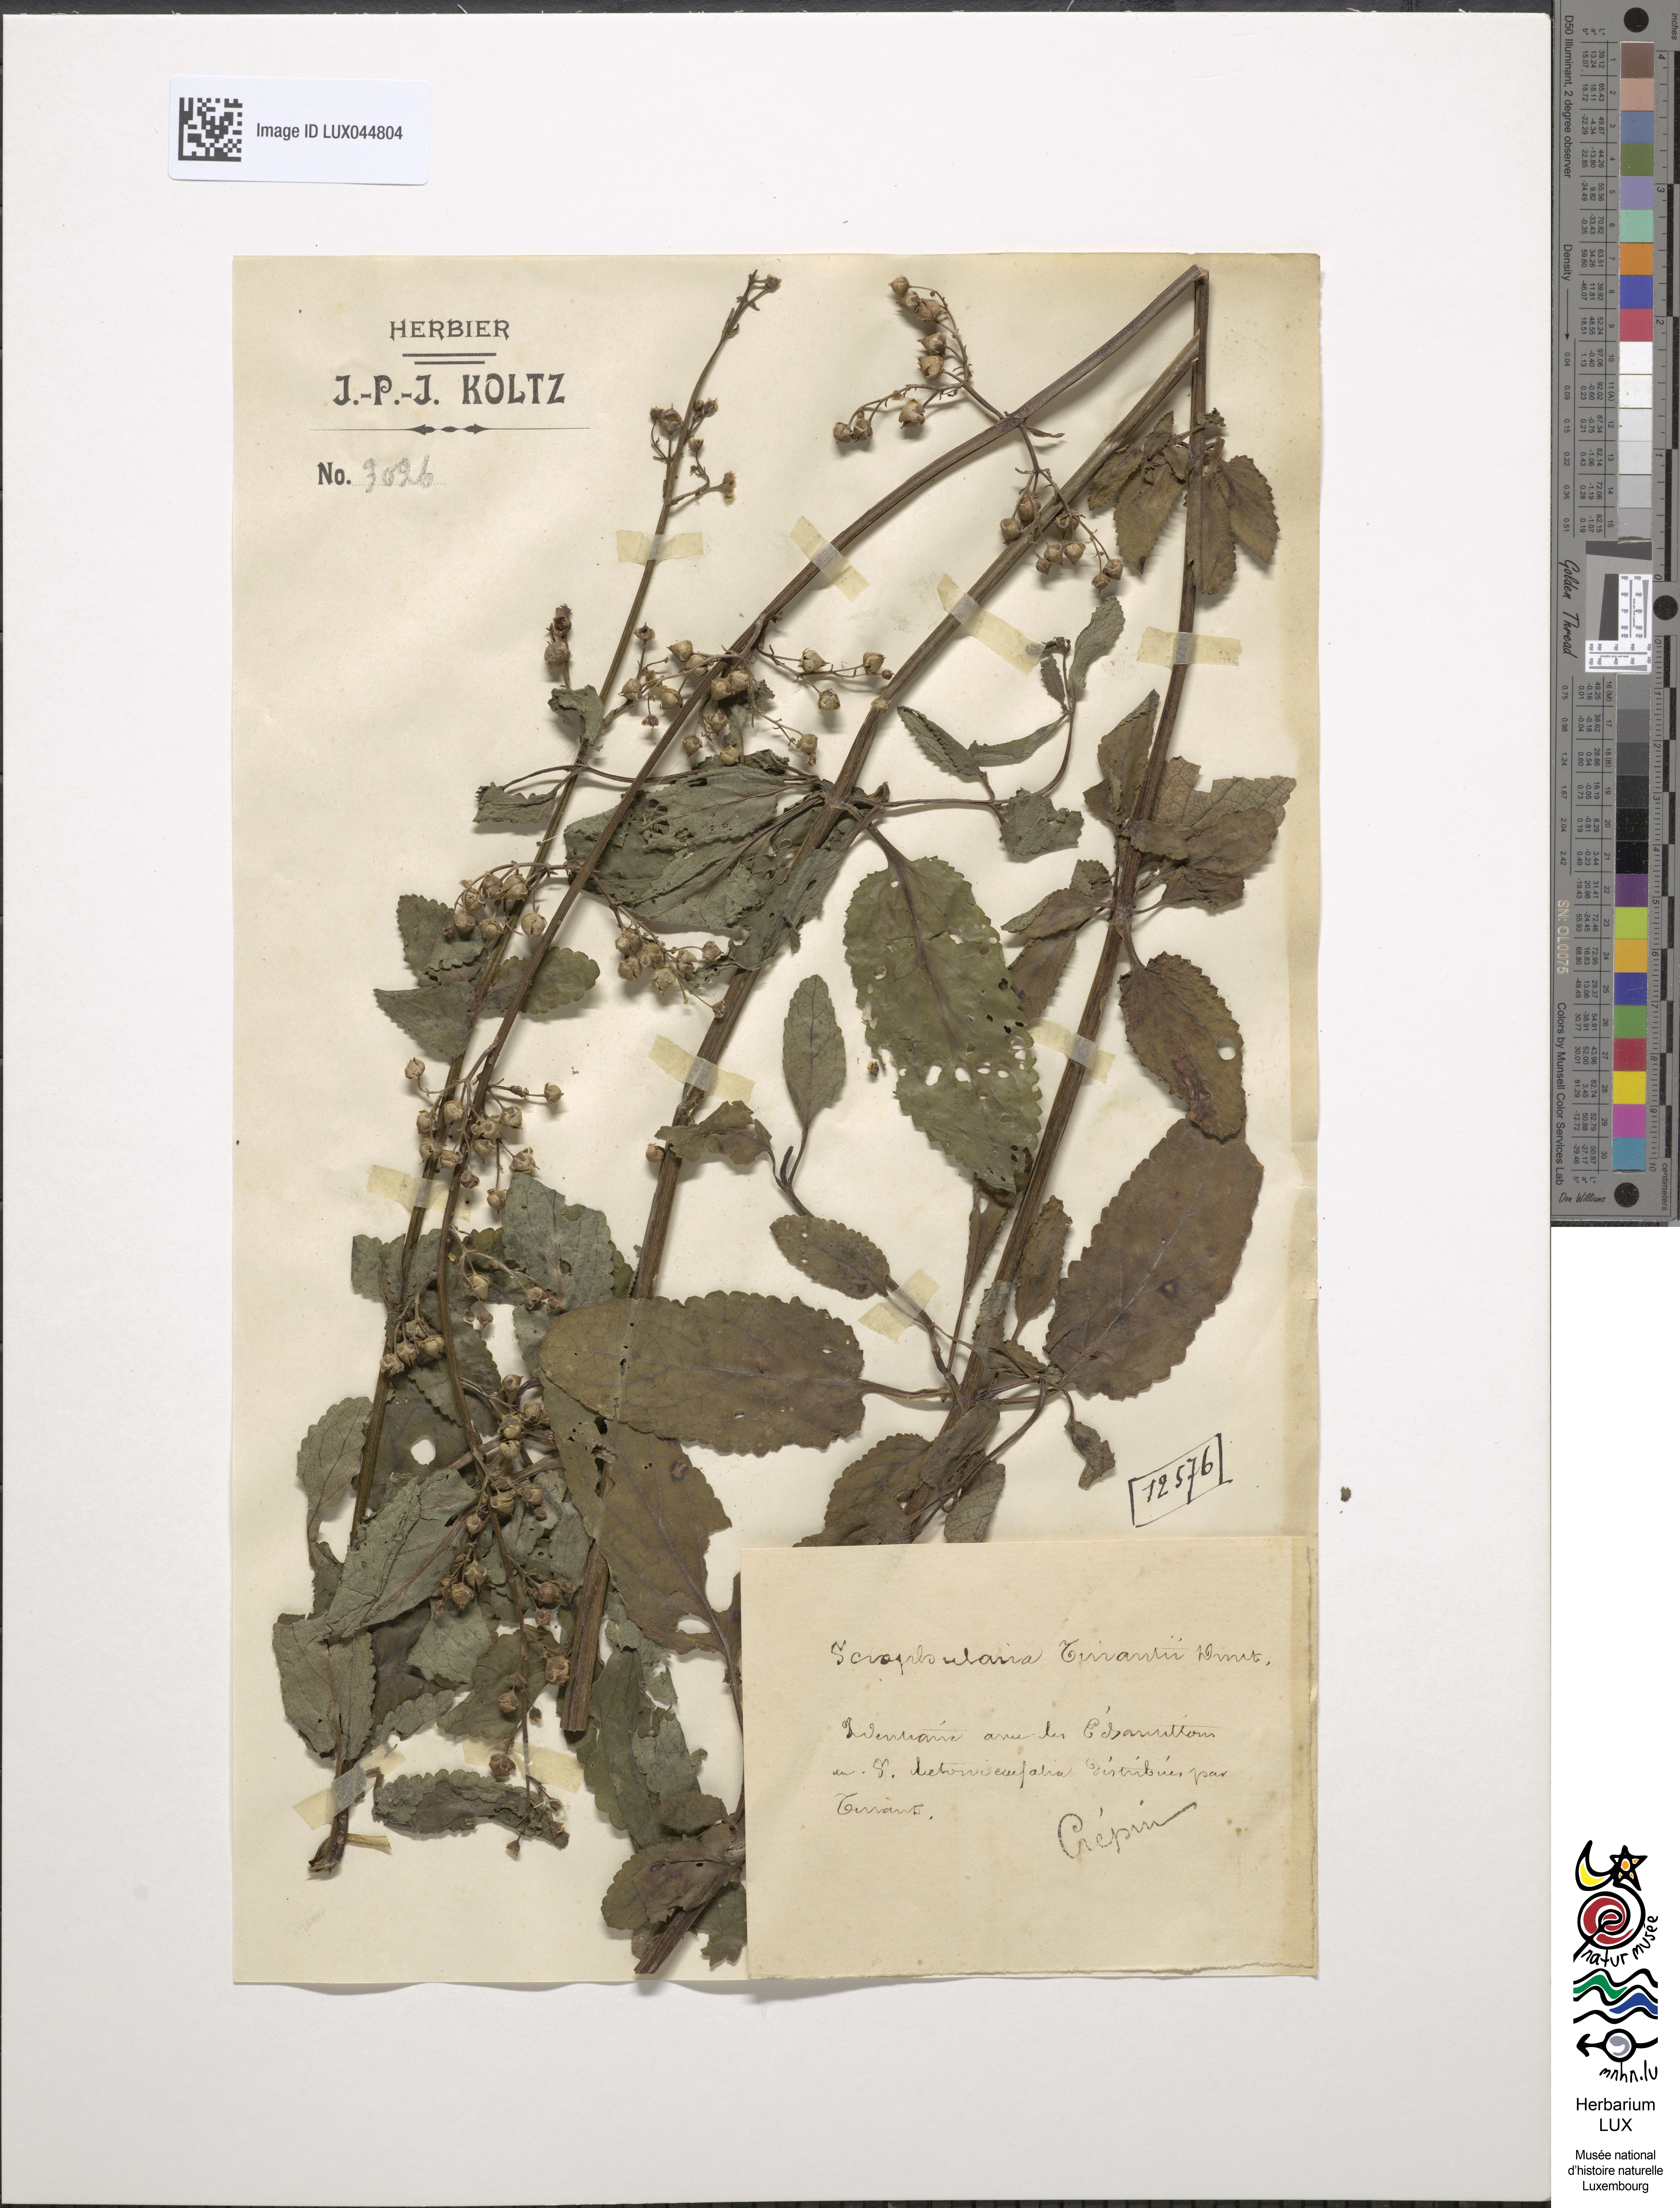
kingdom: Plantae
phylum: Tracheophyta
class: Magnoliopsida
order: Lamiales
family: Scrophulariaceae
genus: Scrophularia
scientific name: Scrophularia auriculata
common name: Water betony
